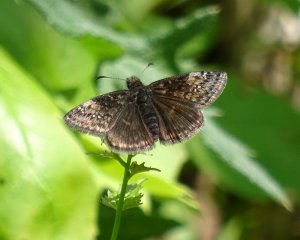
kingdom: Animalia
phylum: Arthropoda
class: Insecta
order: Lepidoptera
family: Hesperiidae
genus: Erynnis
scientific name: Erynnis
